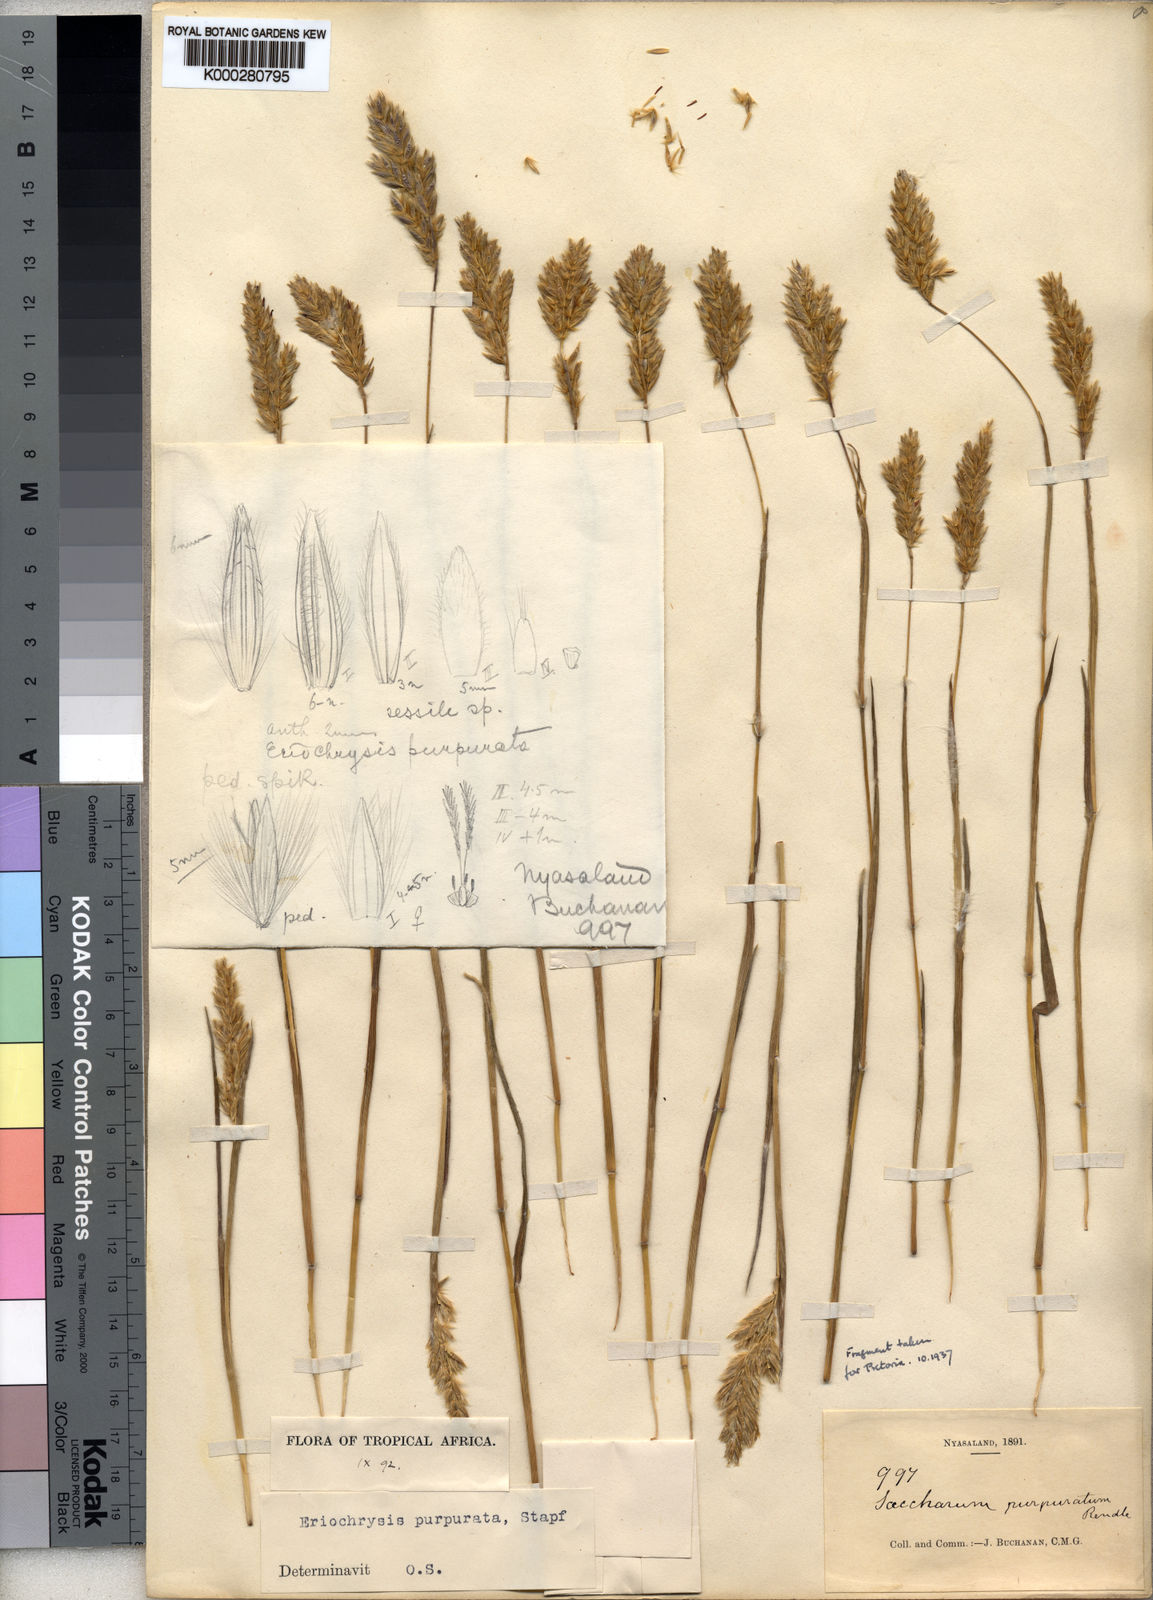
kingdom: Plantae
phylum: Tracheophyta
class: Liliopsida
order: Poales
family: Poaceae
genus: Eriochrysis
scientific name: Eriochrysis purpurata
